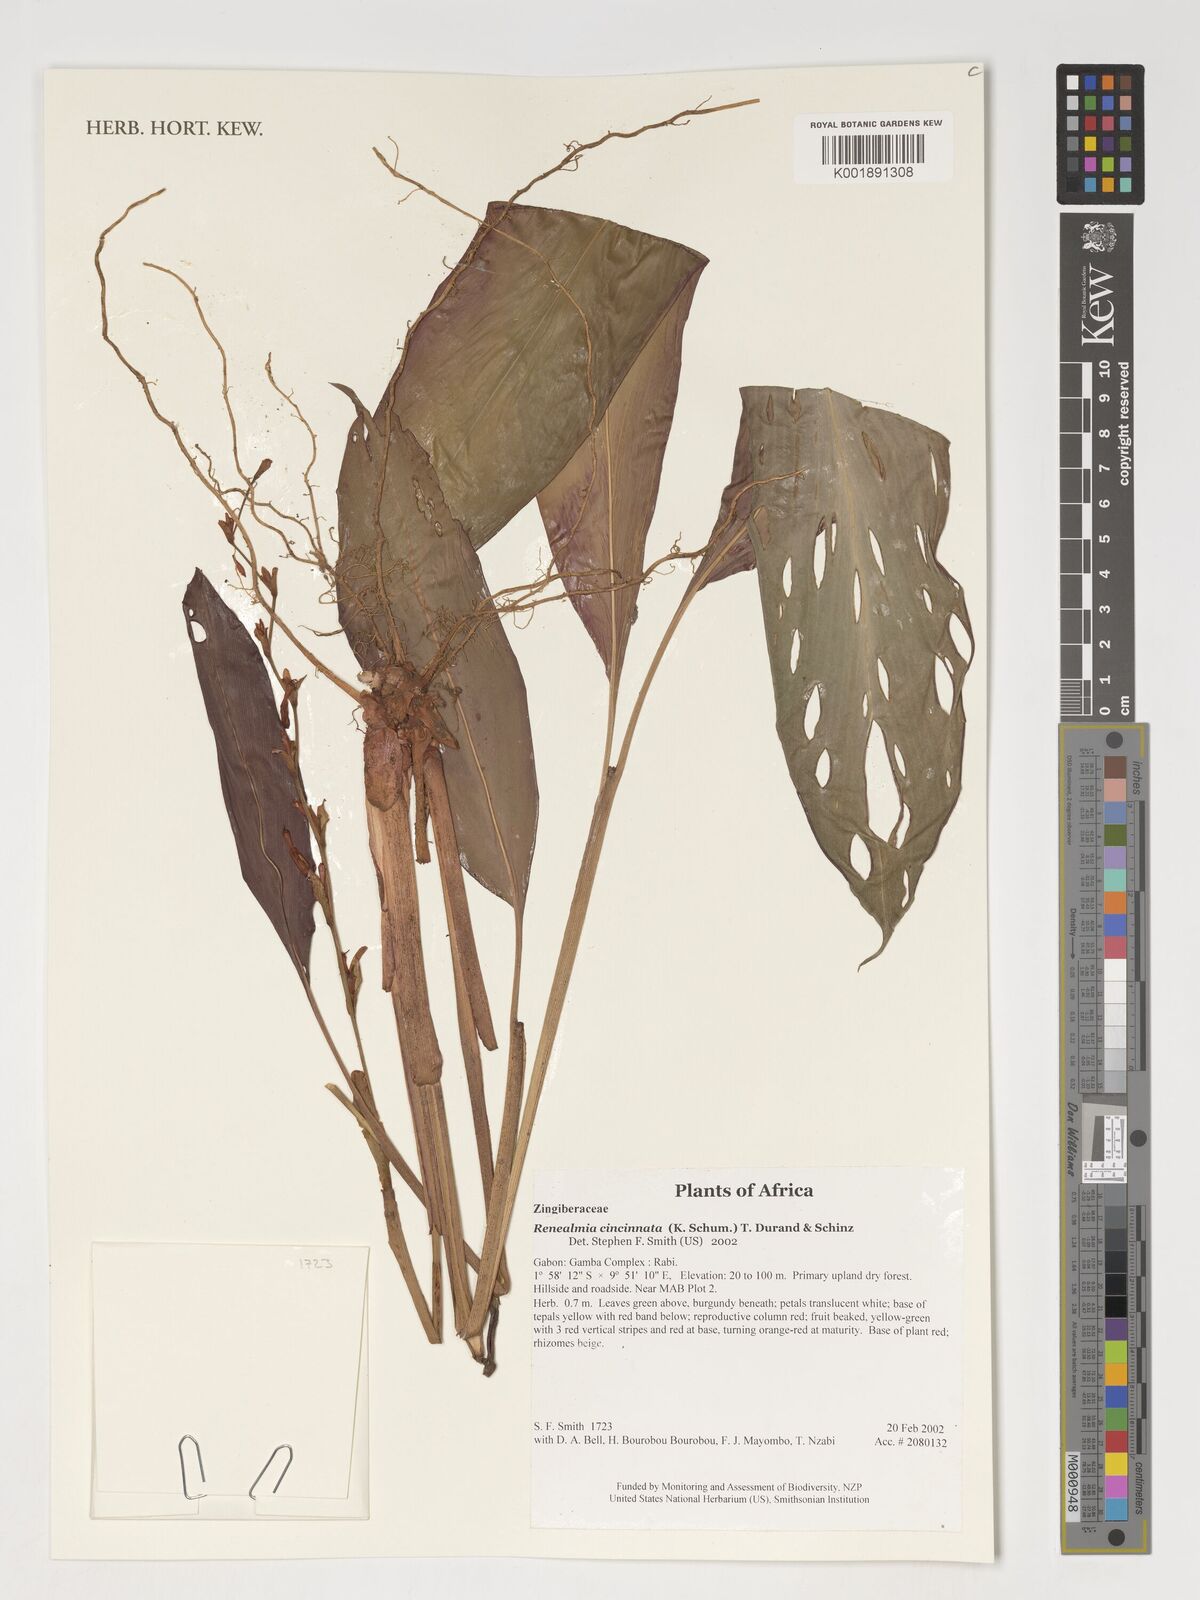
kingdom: Plantae
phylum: Tracheophyta
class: Liliopsida
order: Zingiberales
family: Zingiberaceae
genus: Renealmia
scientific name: Renealmia cincinnata
